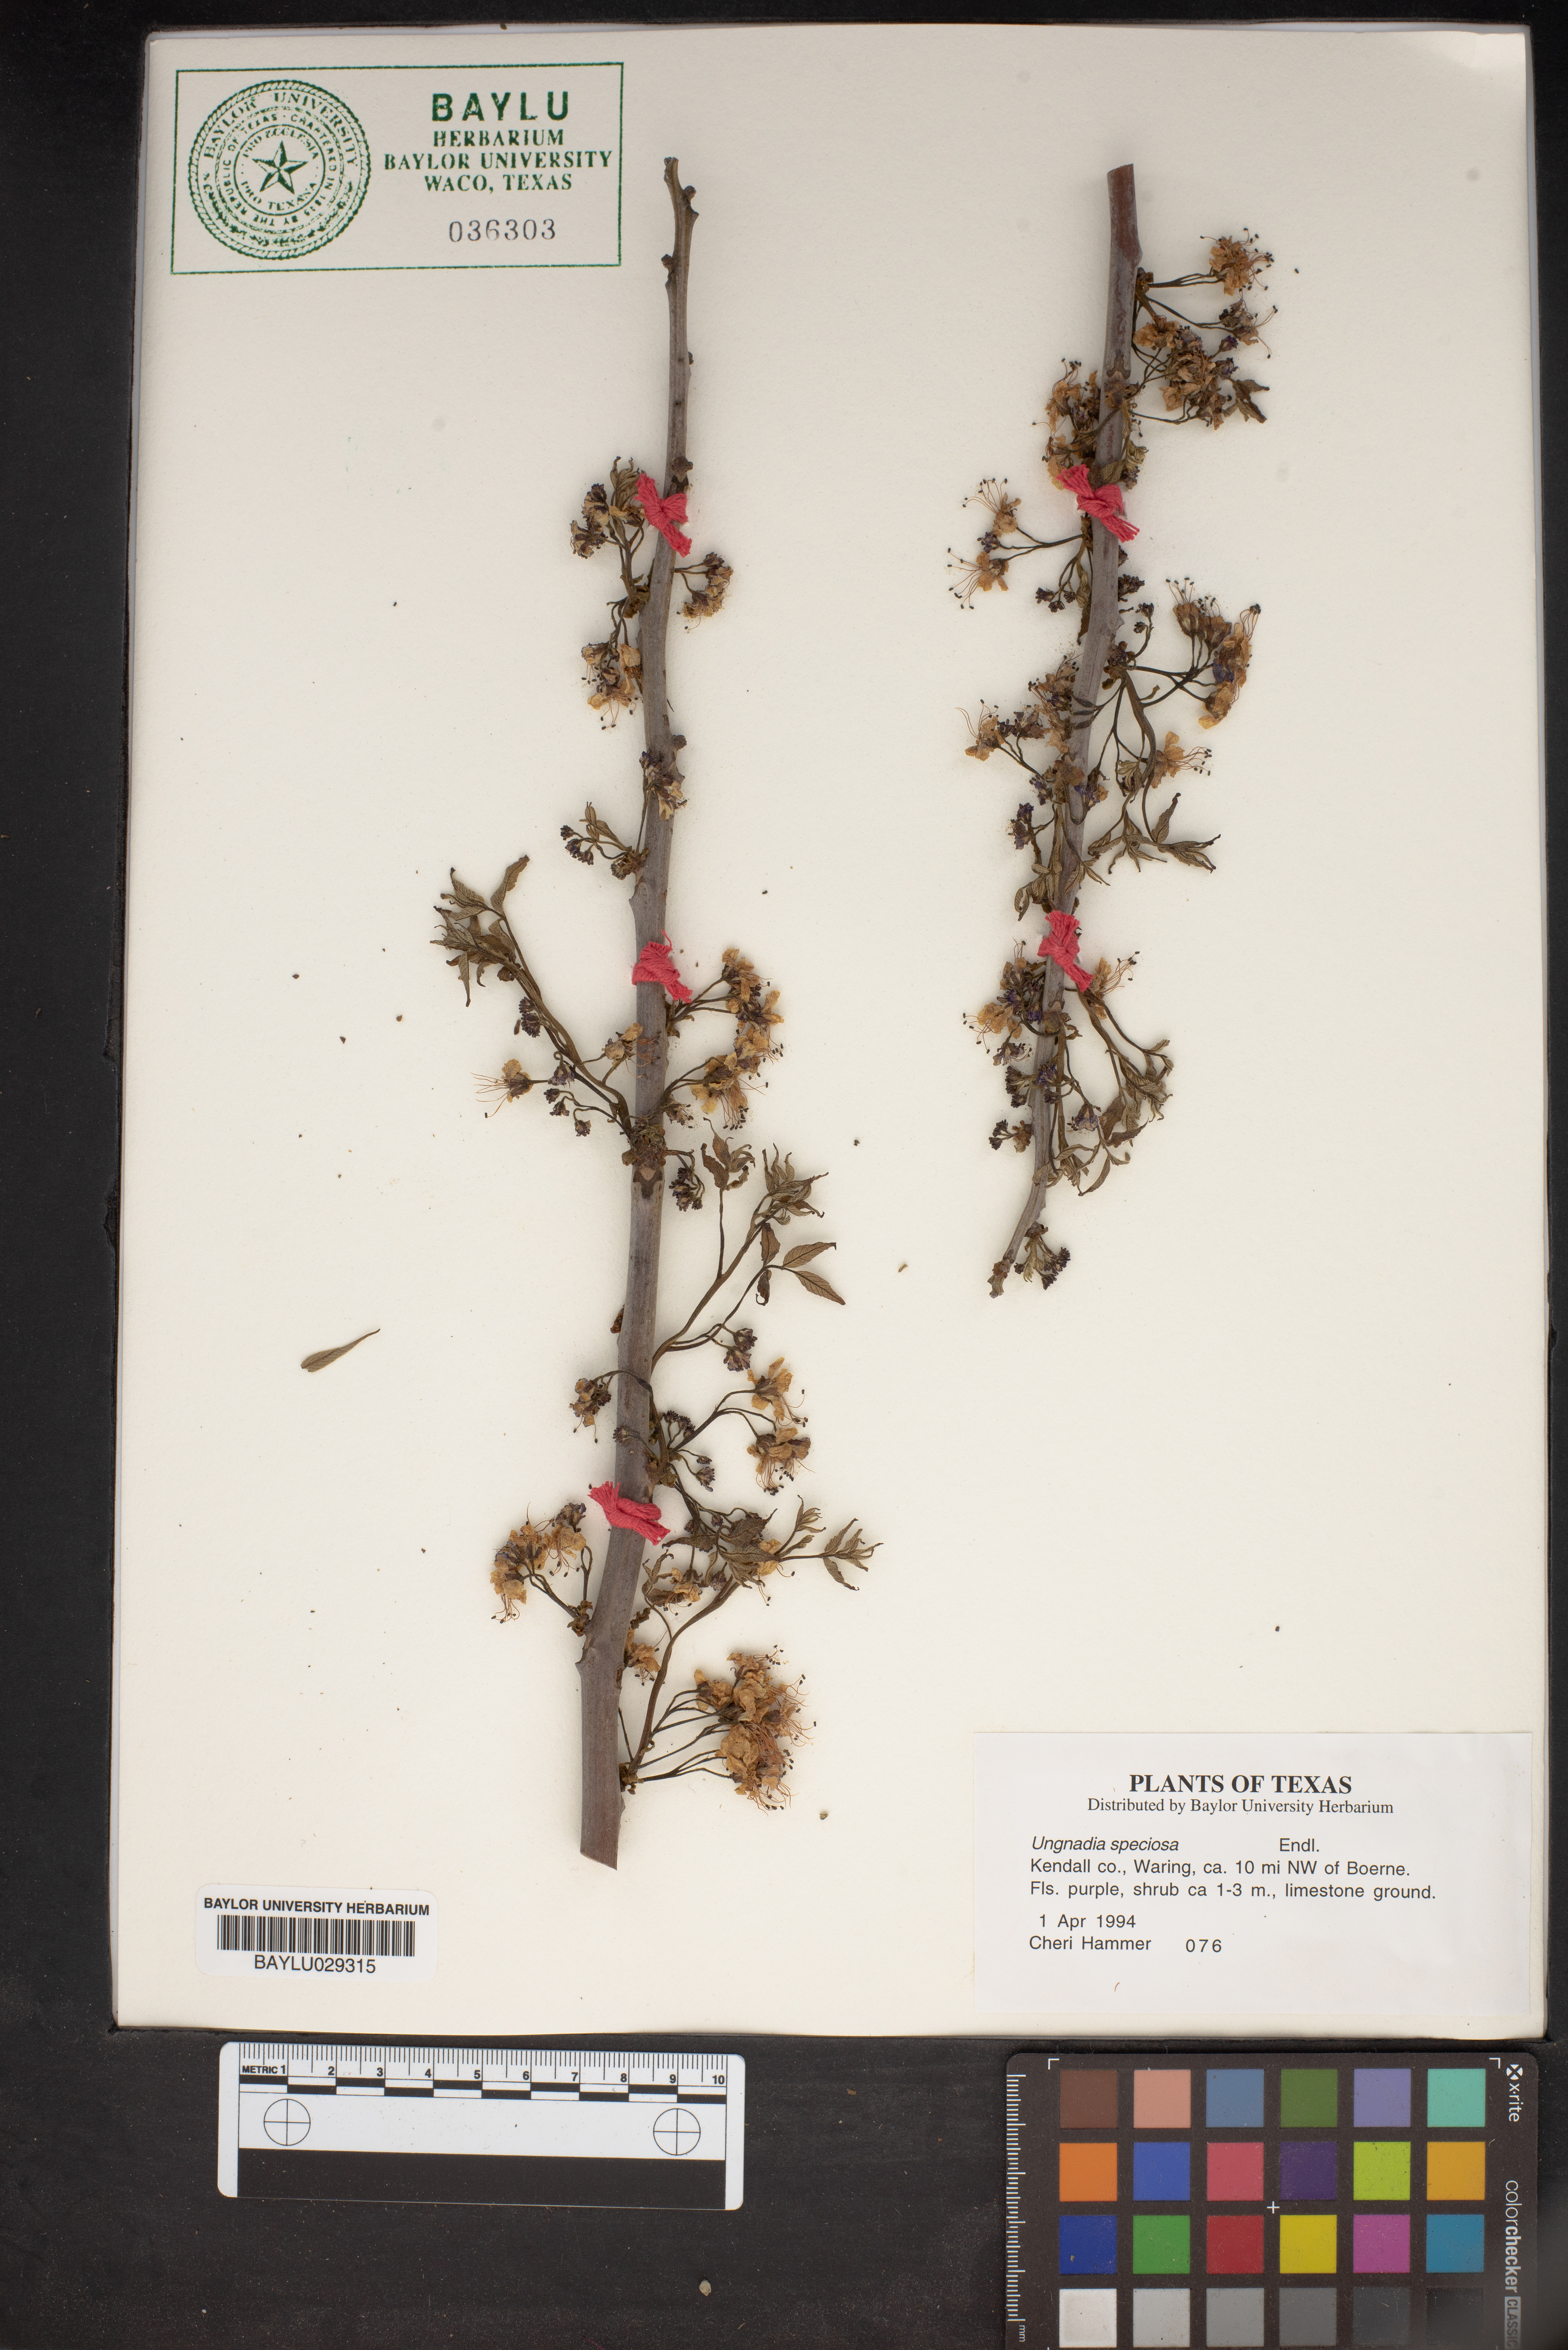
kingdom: Plantae
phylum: Tracheophyta
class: Magnoliopsida
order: Sapindales
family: Sapindaceae
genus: Ungnadia
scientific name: Ungnadia speciosa
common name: Texas-buckeye
